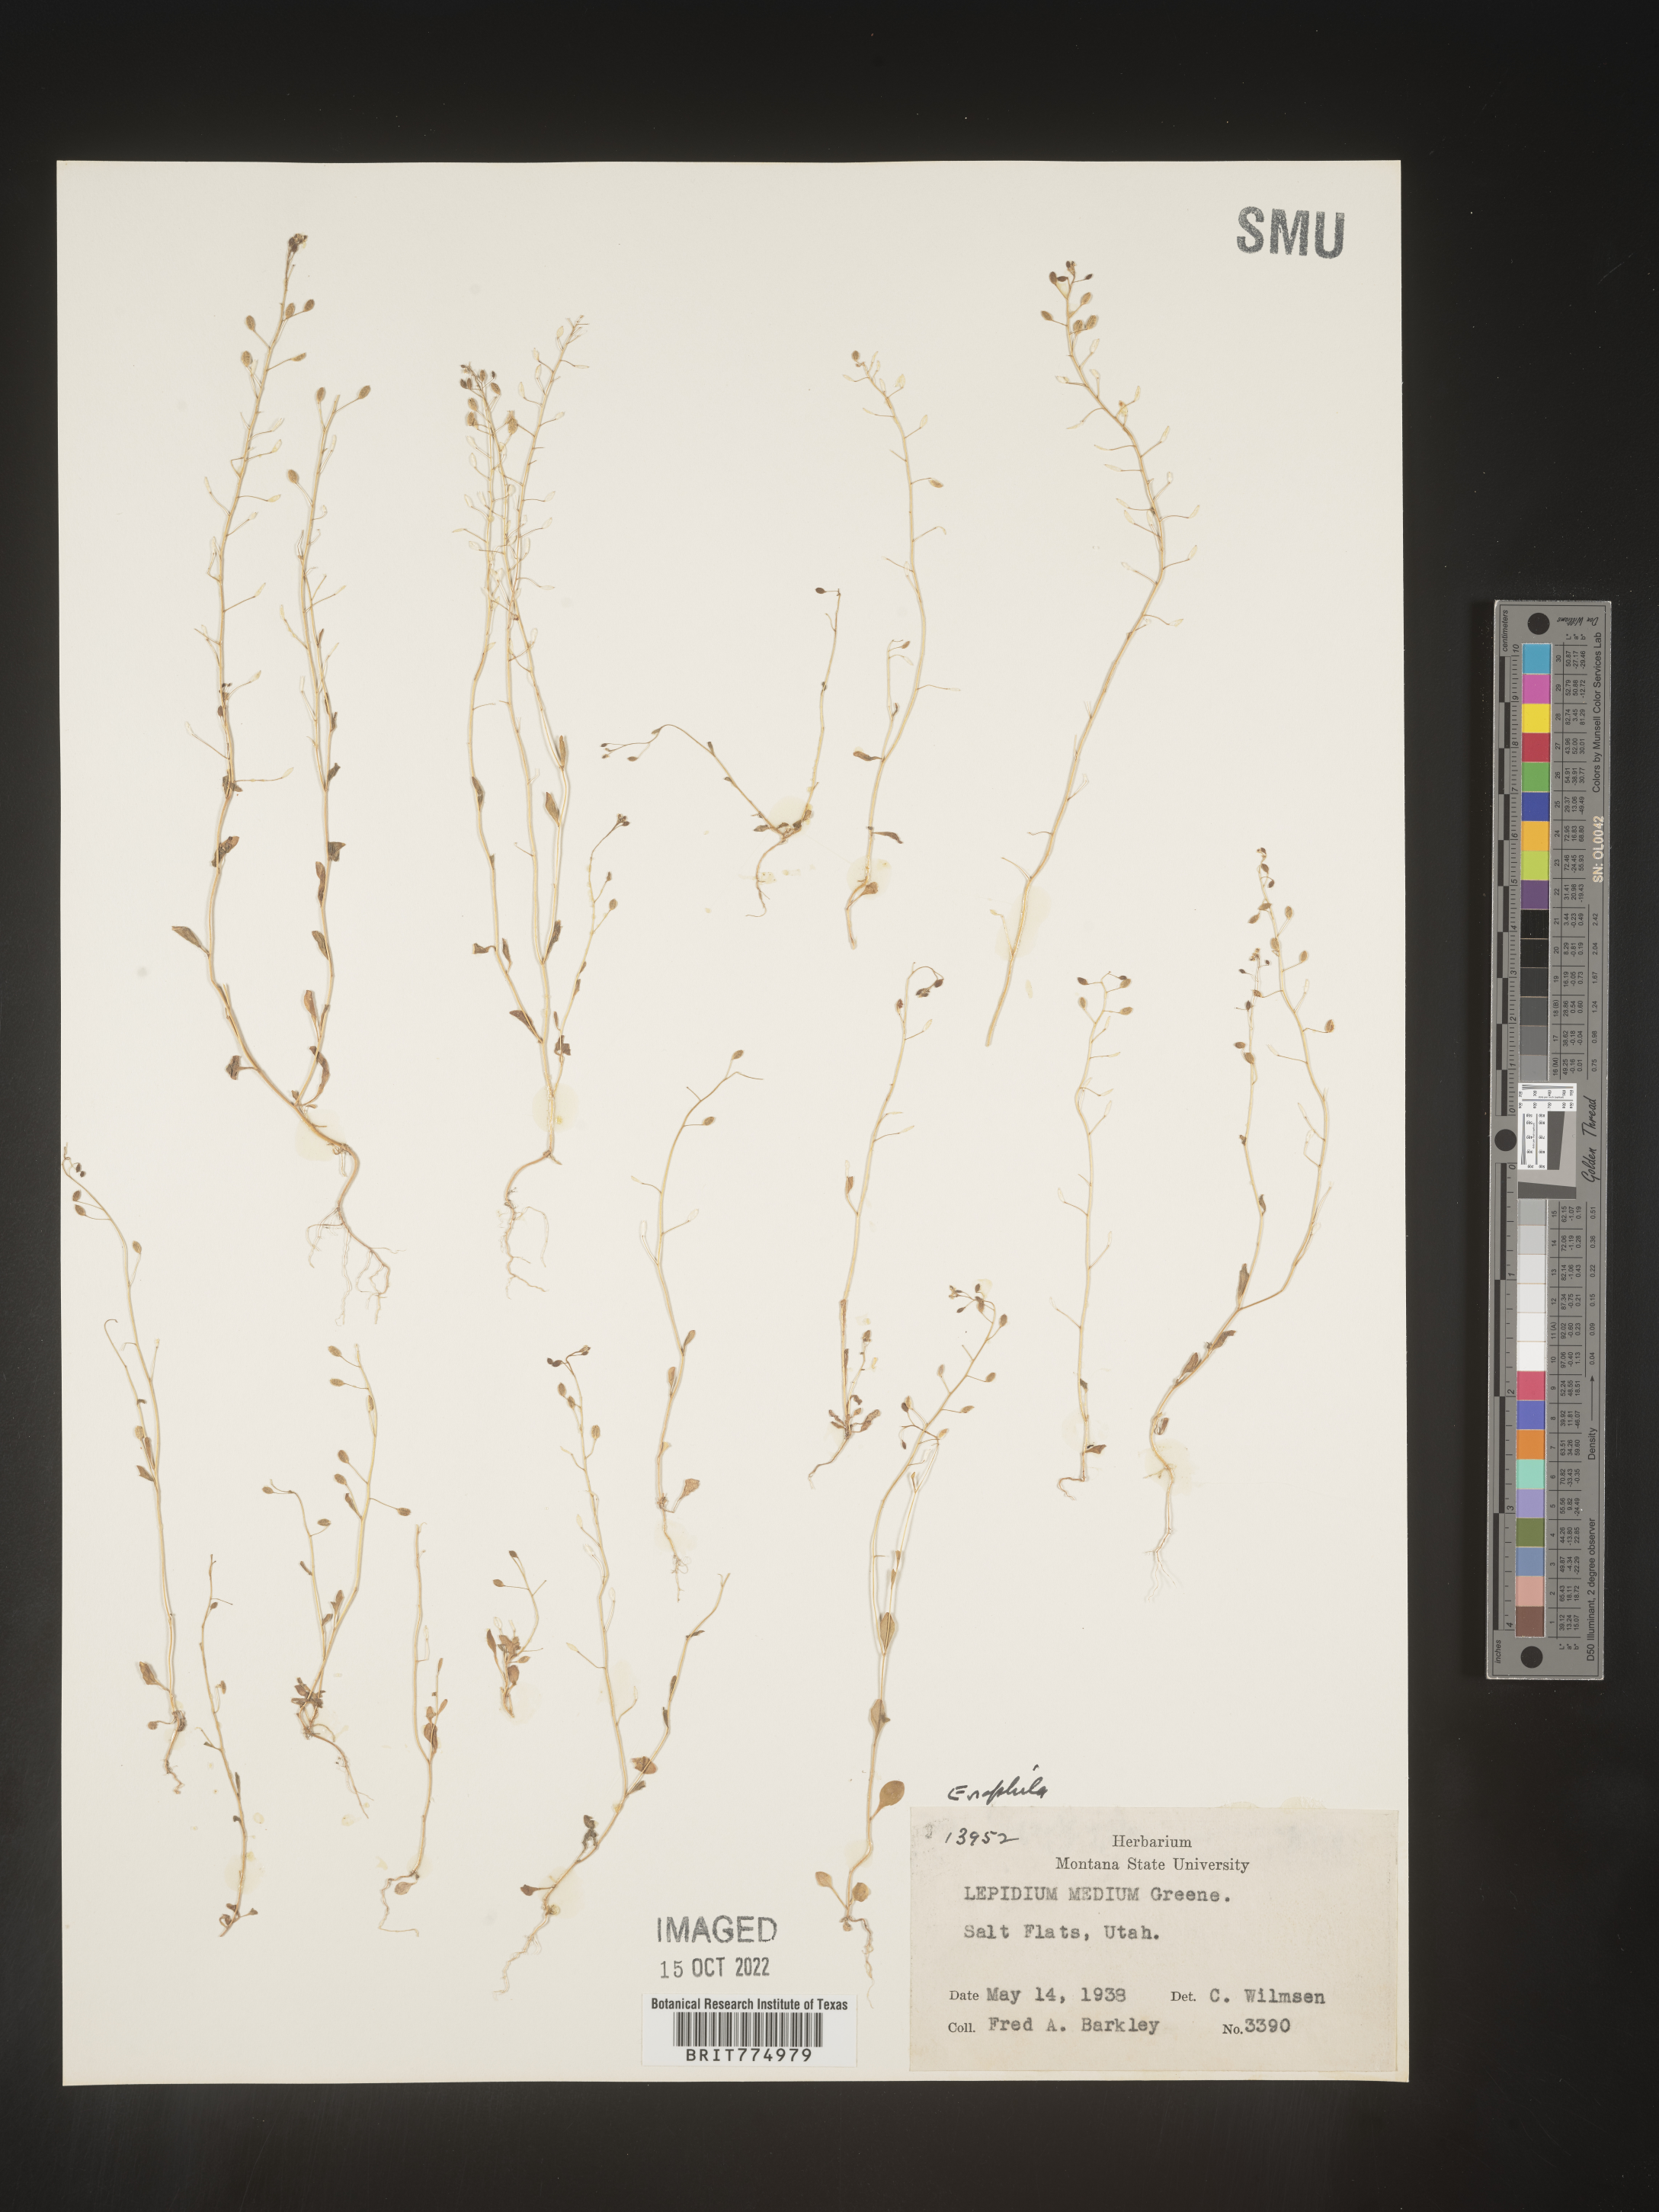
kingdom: Plantae
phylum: Tracheophyta
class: Magnoliopsida
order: Brassicales
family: Brassicaceae
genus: Draba
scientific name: Draba verna
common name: Spring draba
